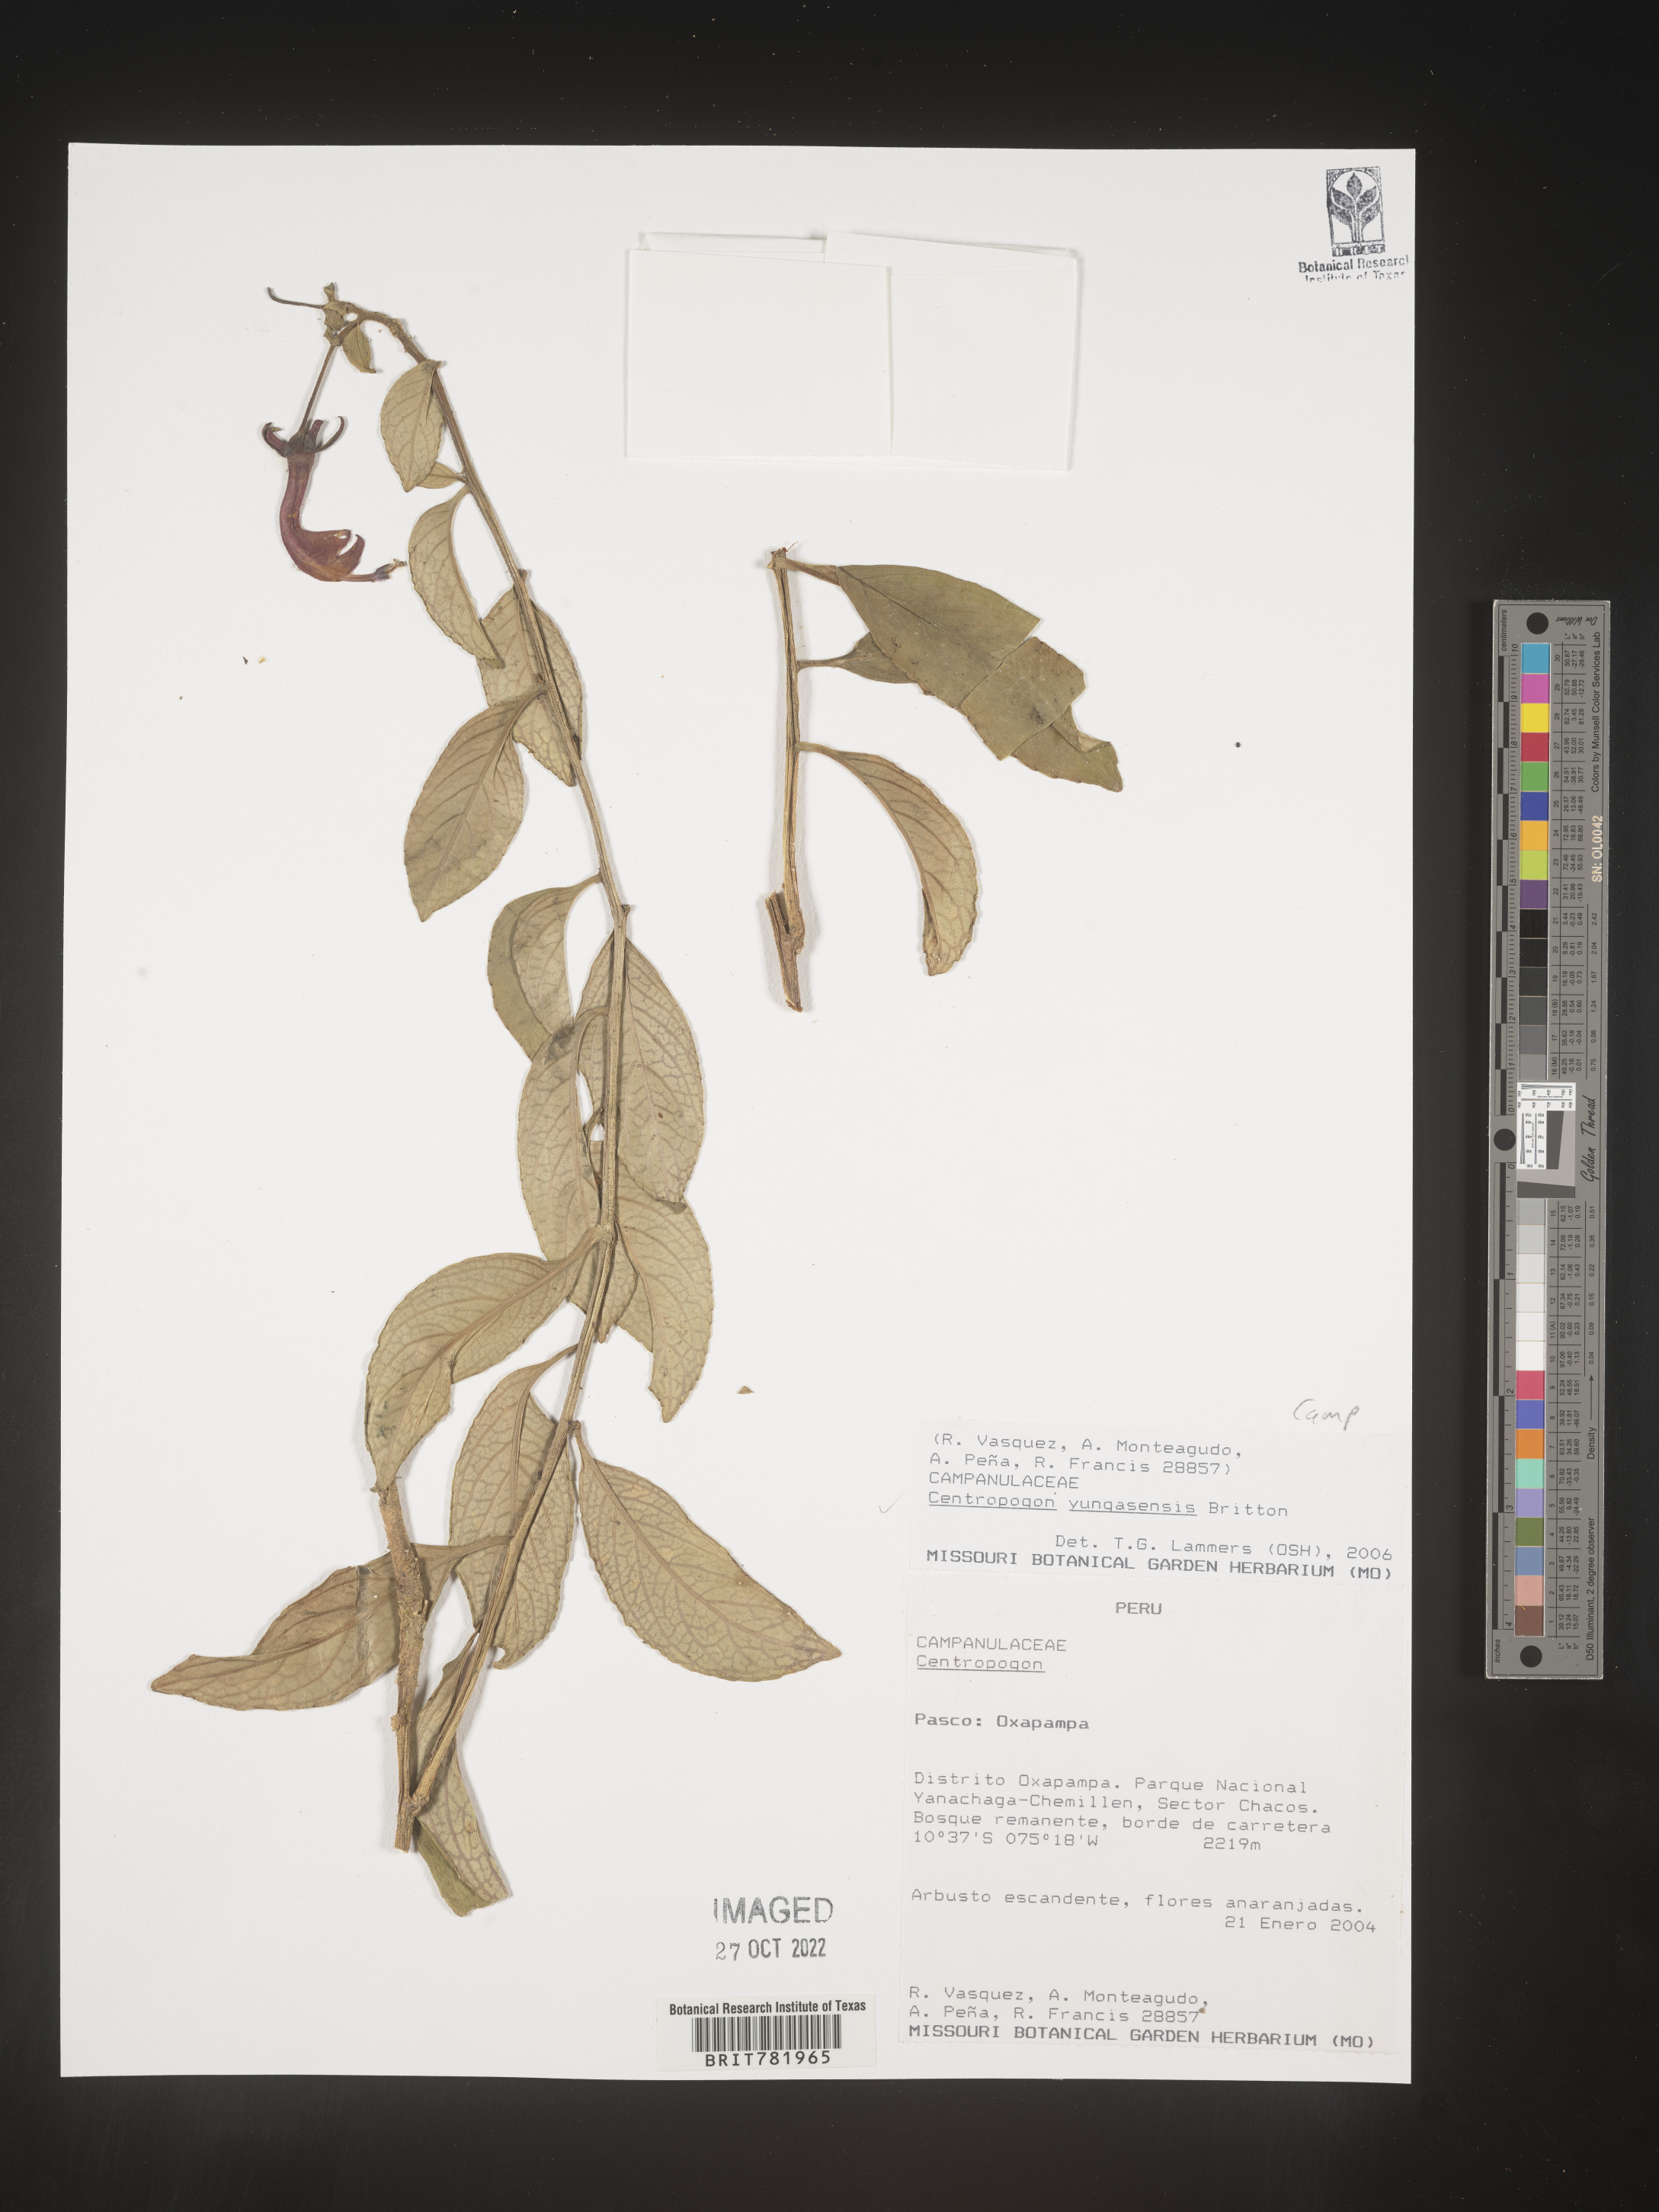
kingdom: Plantae
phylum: Tracheophyta
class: Magnoliopsida
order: Asterales
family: Campanulaceae
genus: Centropogon
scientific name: Centropogon
